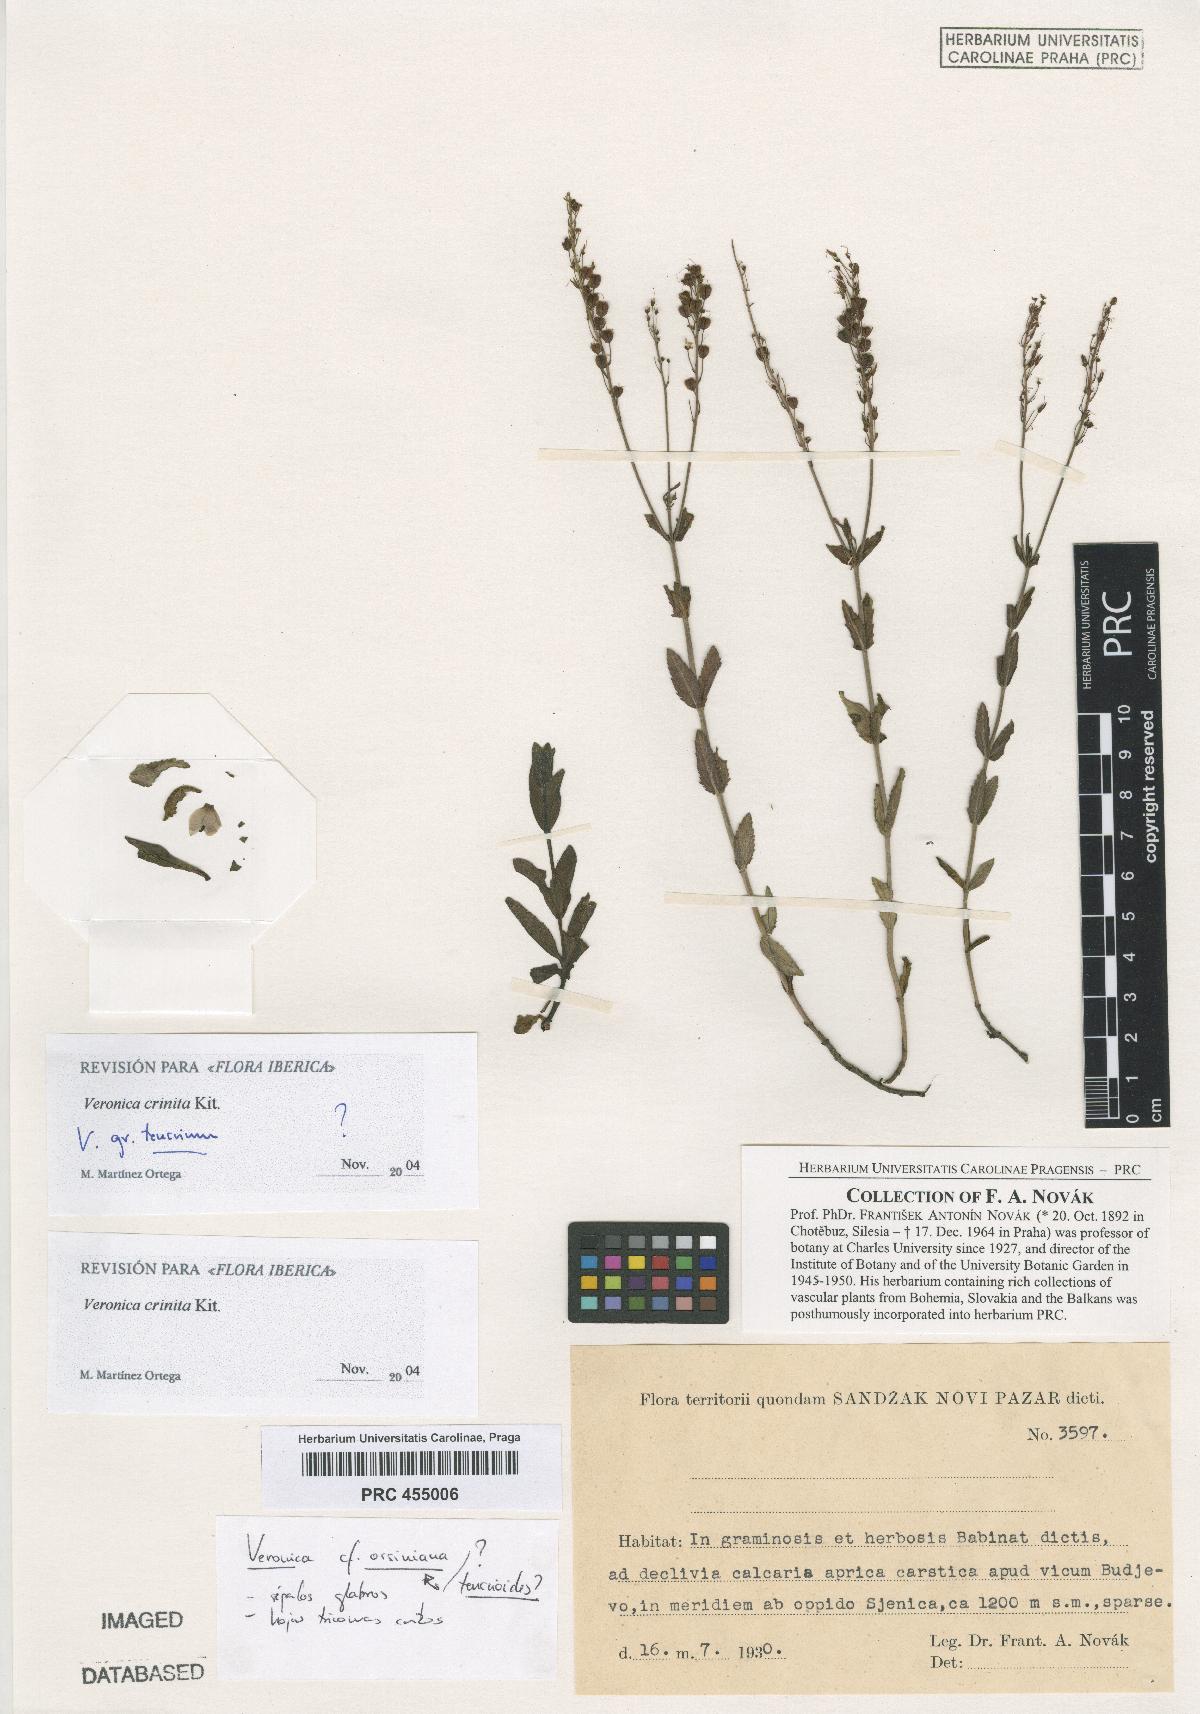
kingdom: Plantae
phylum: Tracheophyta
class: Magnoliopsida
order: Lamiales
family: Plantaginaceae
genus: Veronica
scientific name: Veronica teucrium
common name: Large speedwell
